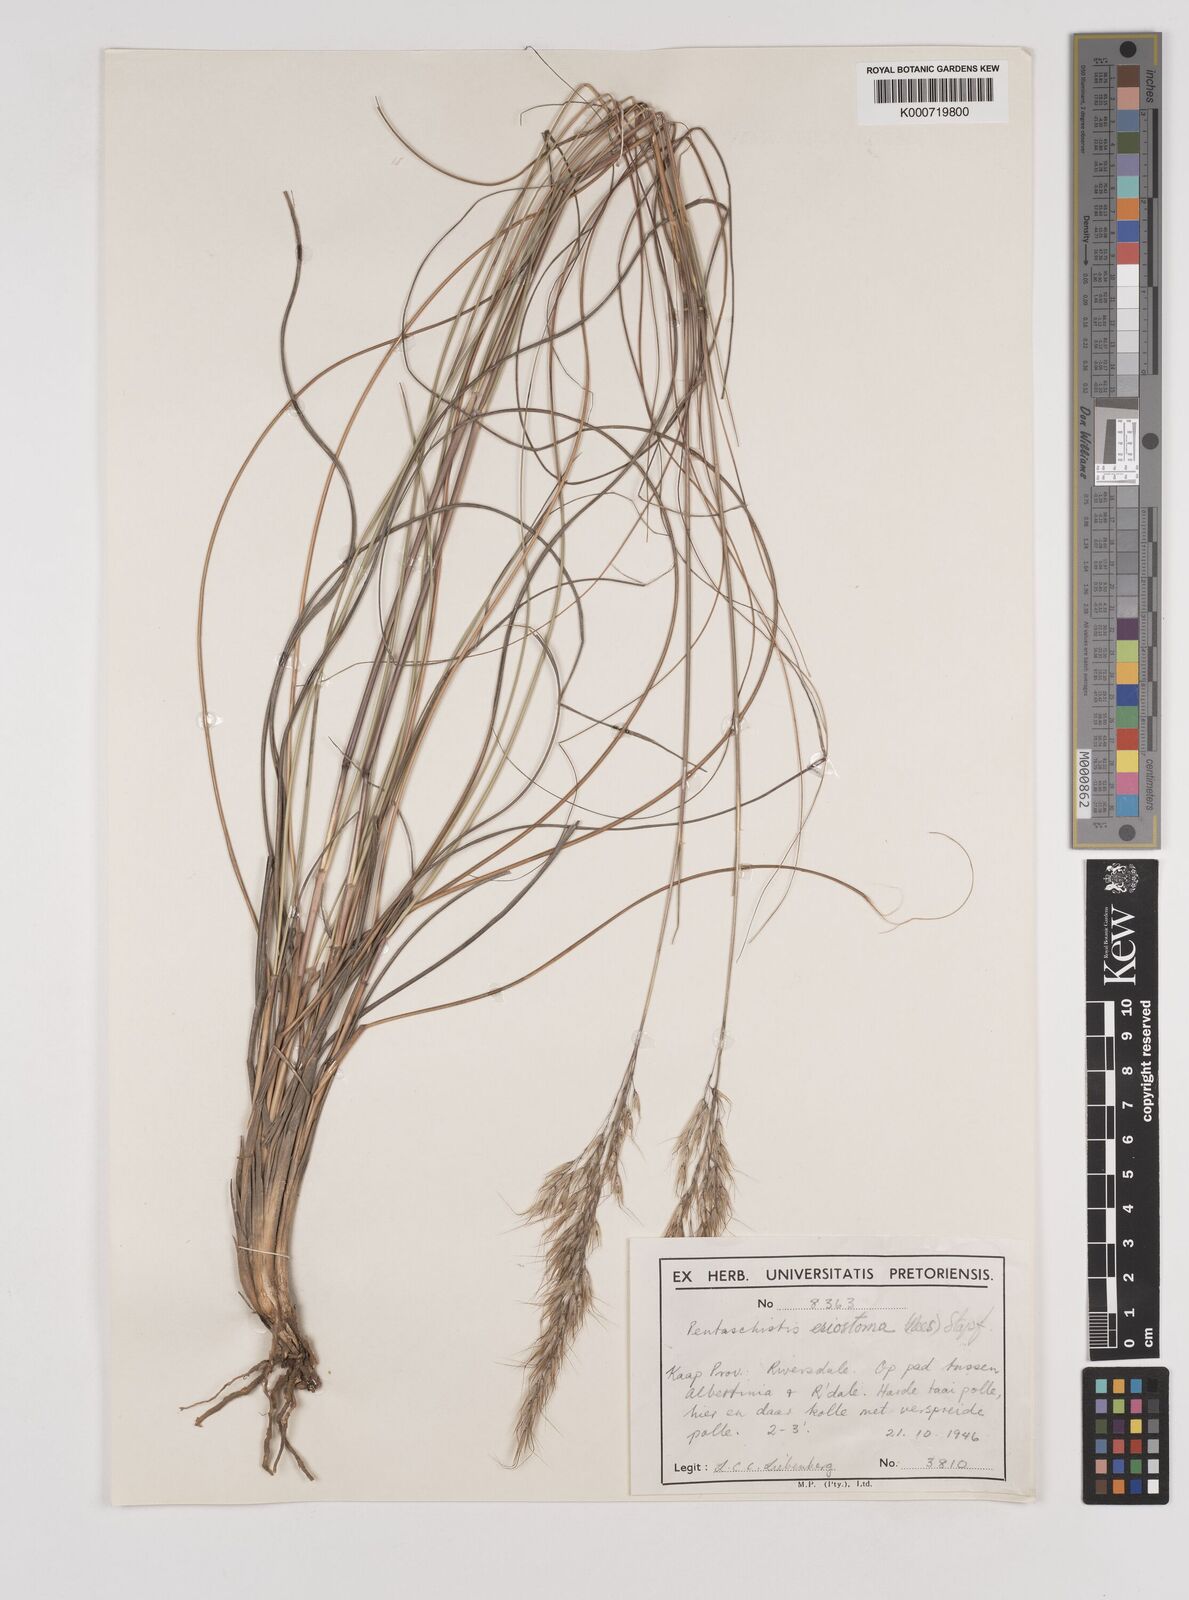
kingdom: Plantae
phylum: Tracheophyta
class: Liliopsida
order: Poales
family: Poaceae
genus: Pentameris
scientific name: Pentameris eriostoma
